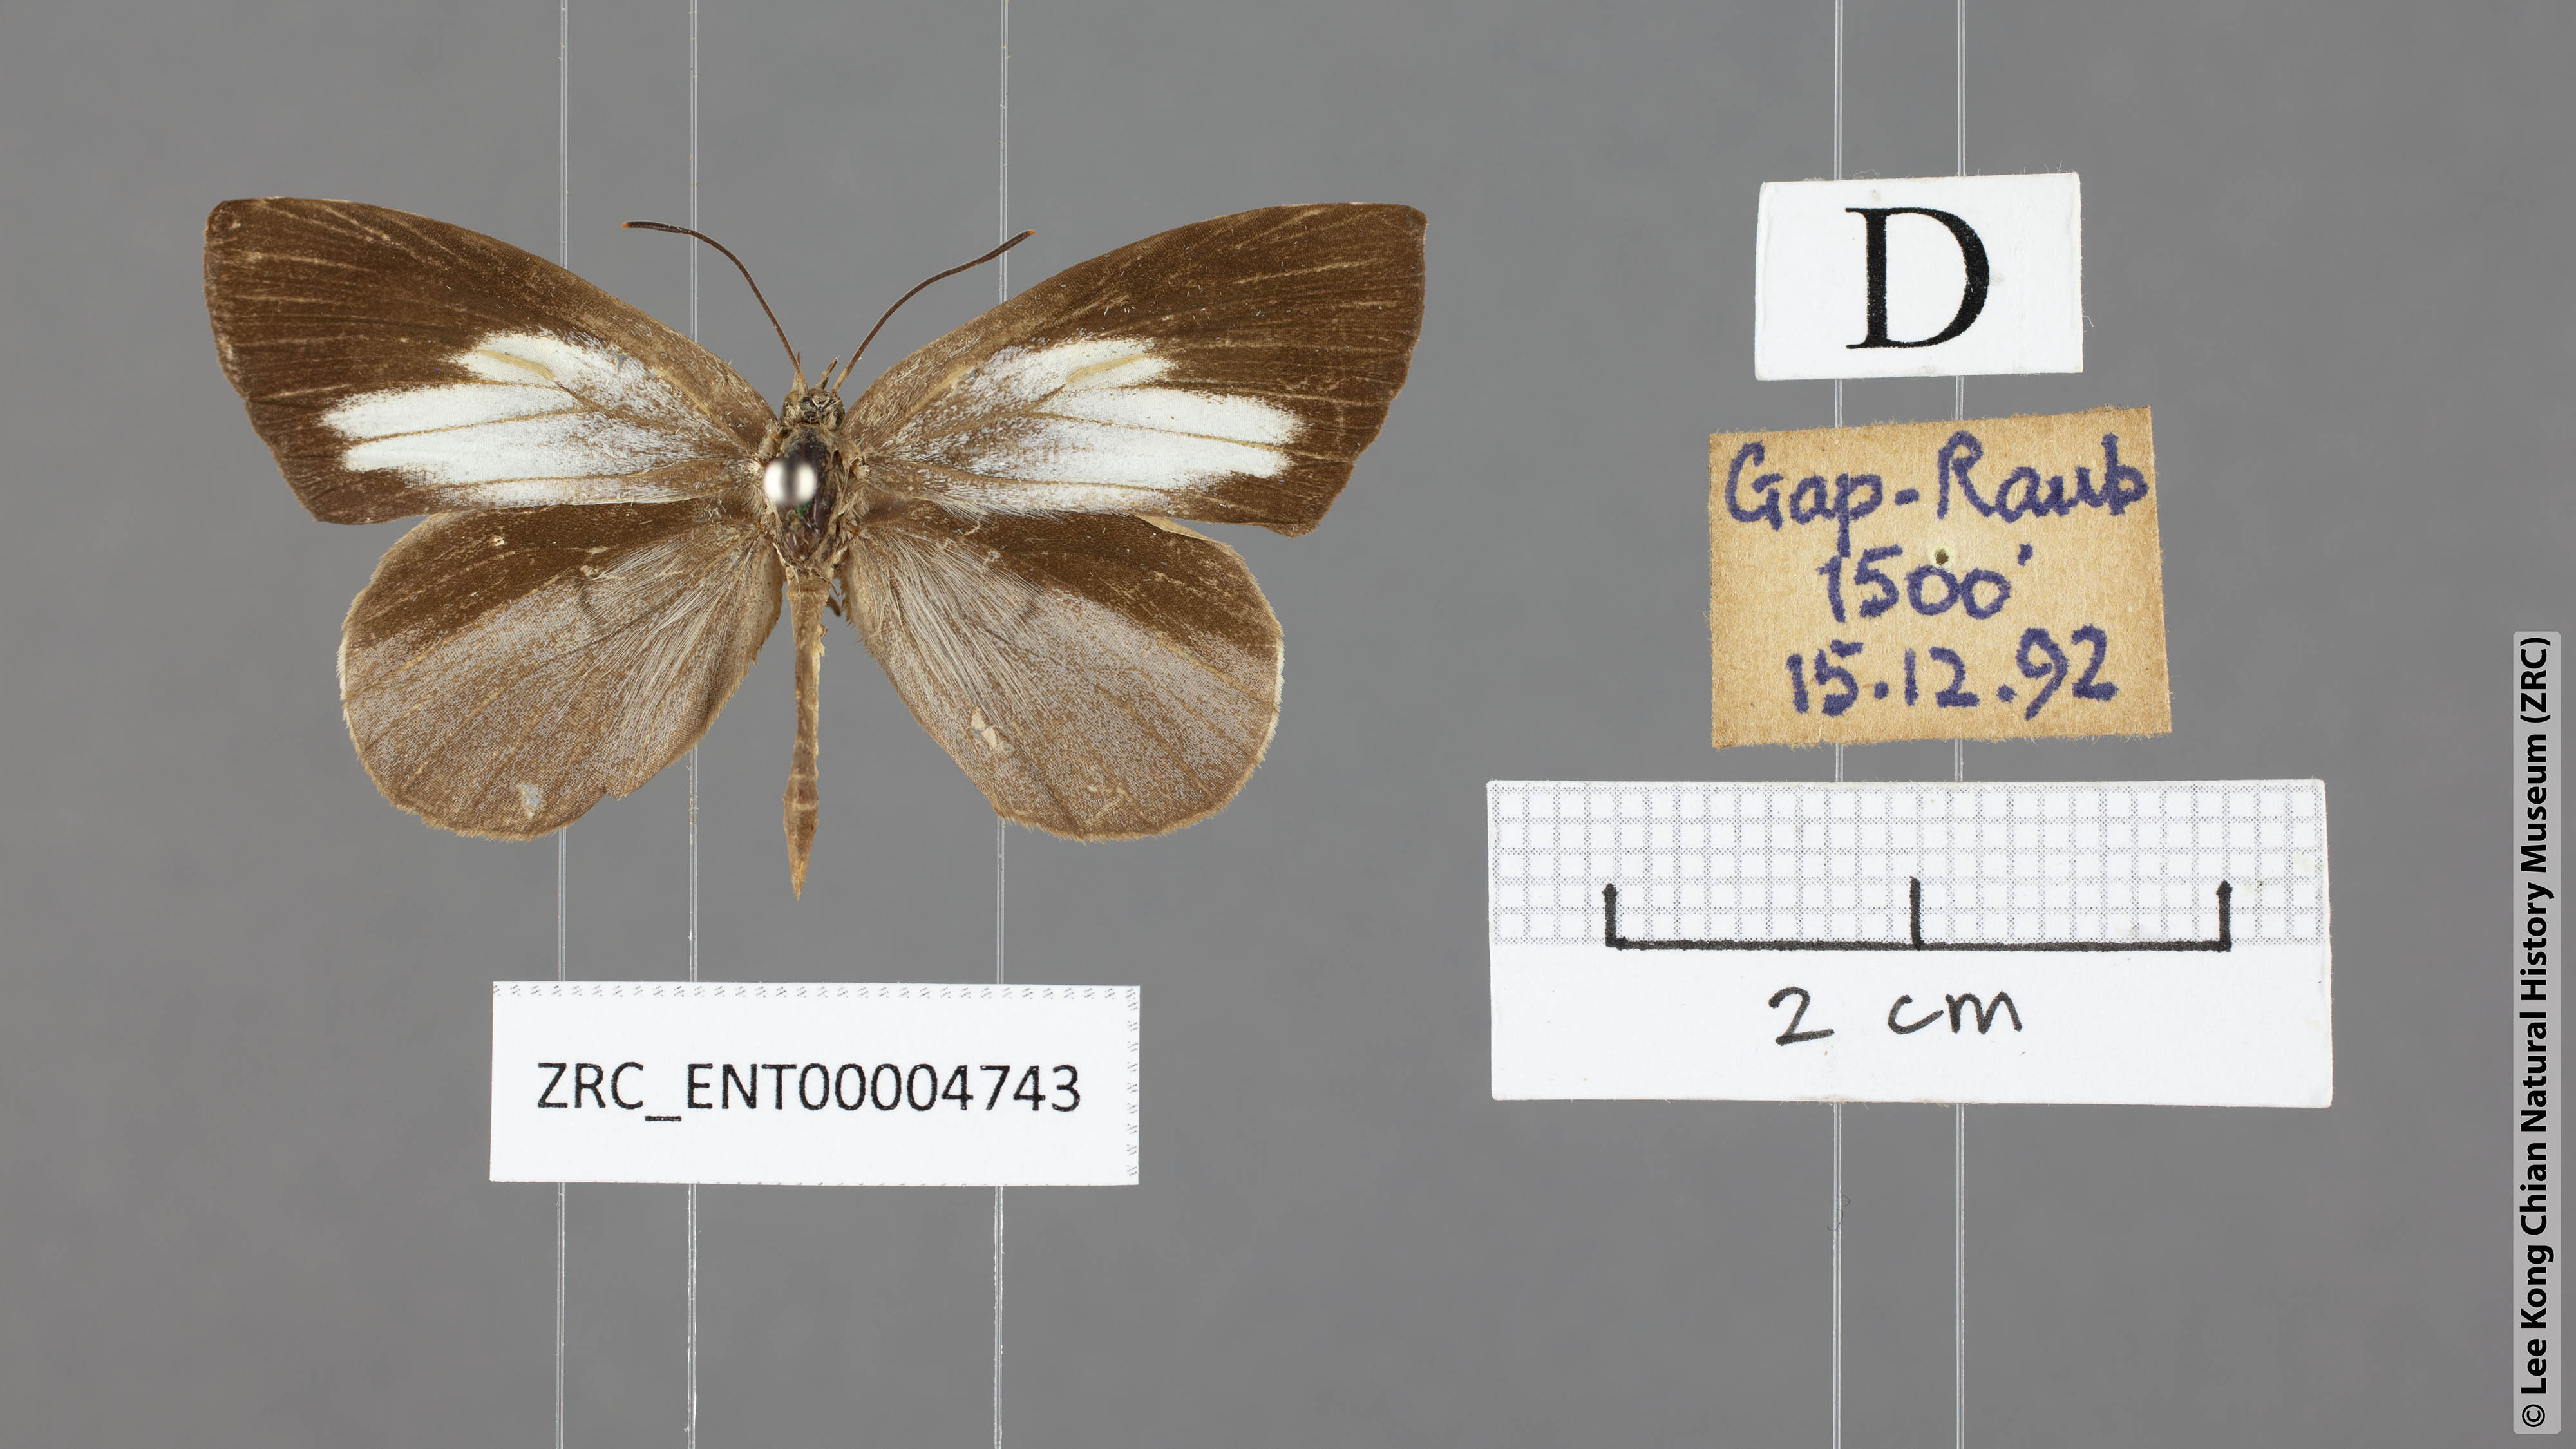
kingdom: Animalia
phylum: Arthropoda
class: Insecta
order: Lepidoptera
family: Lycaenidae
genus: Miletus
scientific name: Miletus symethus
